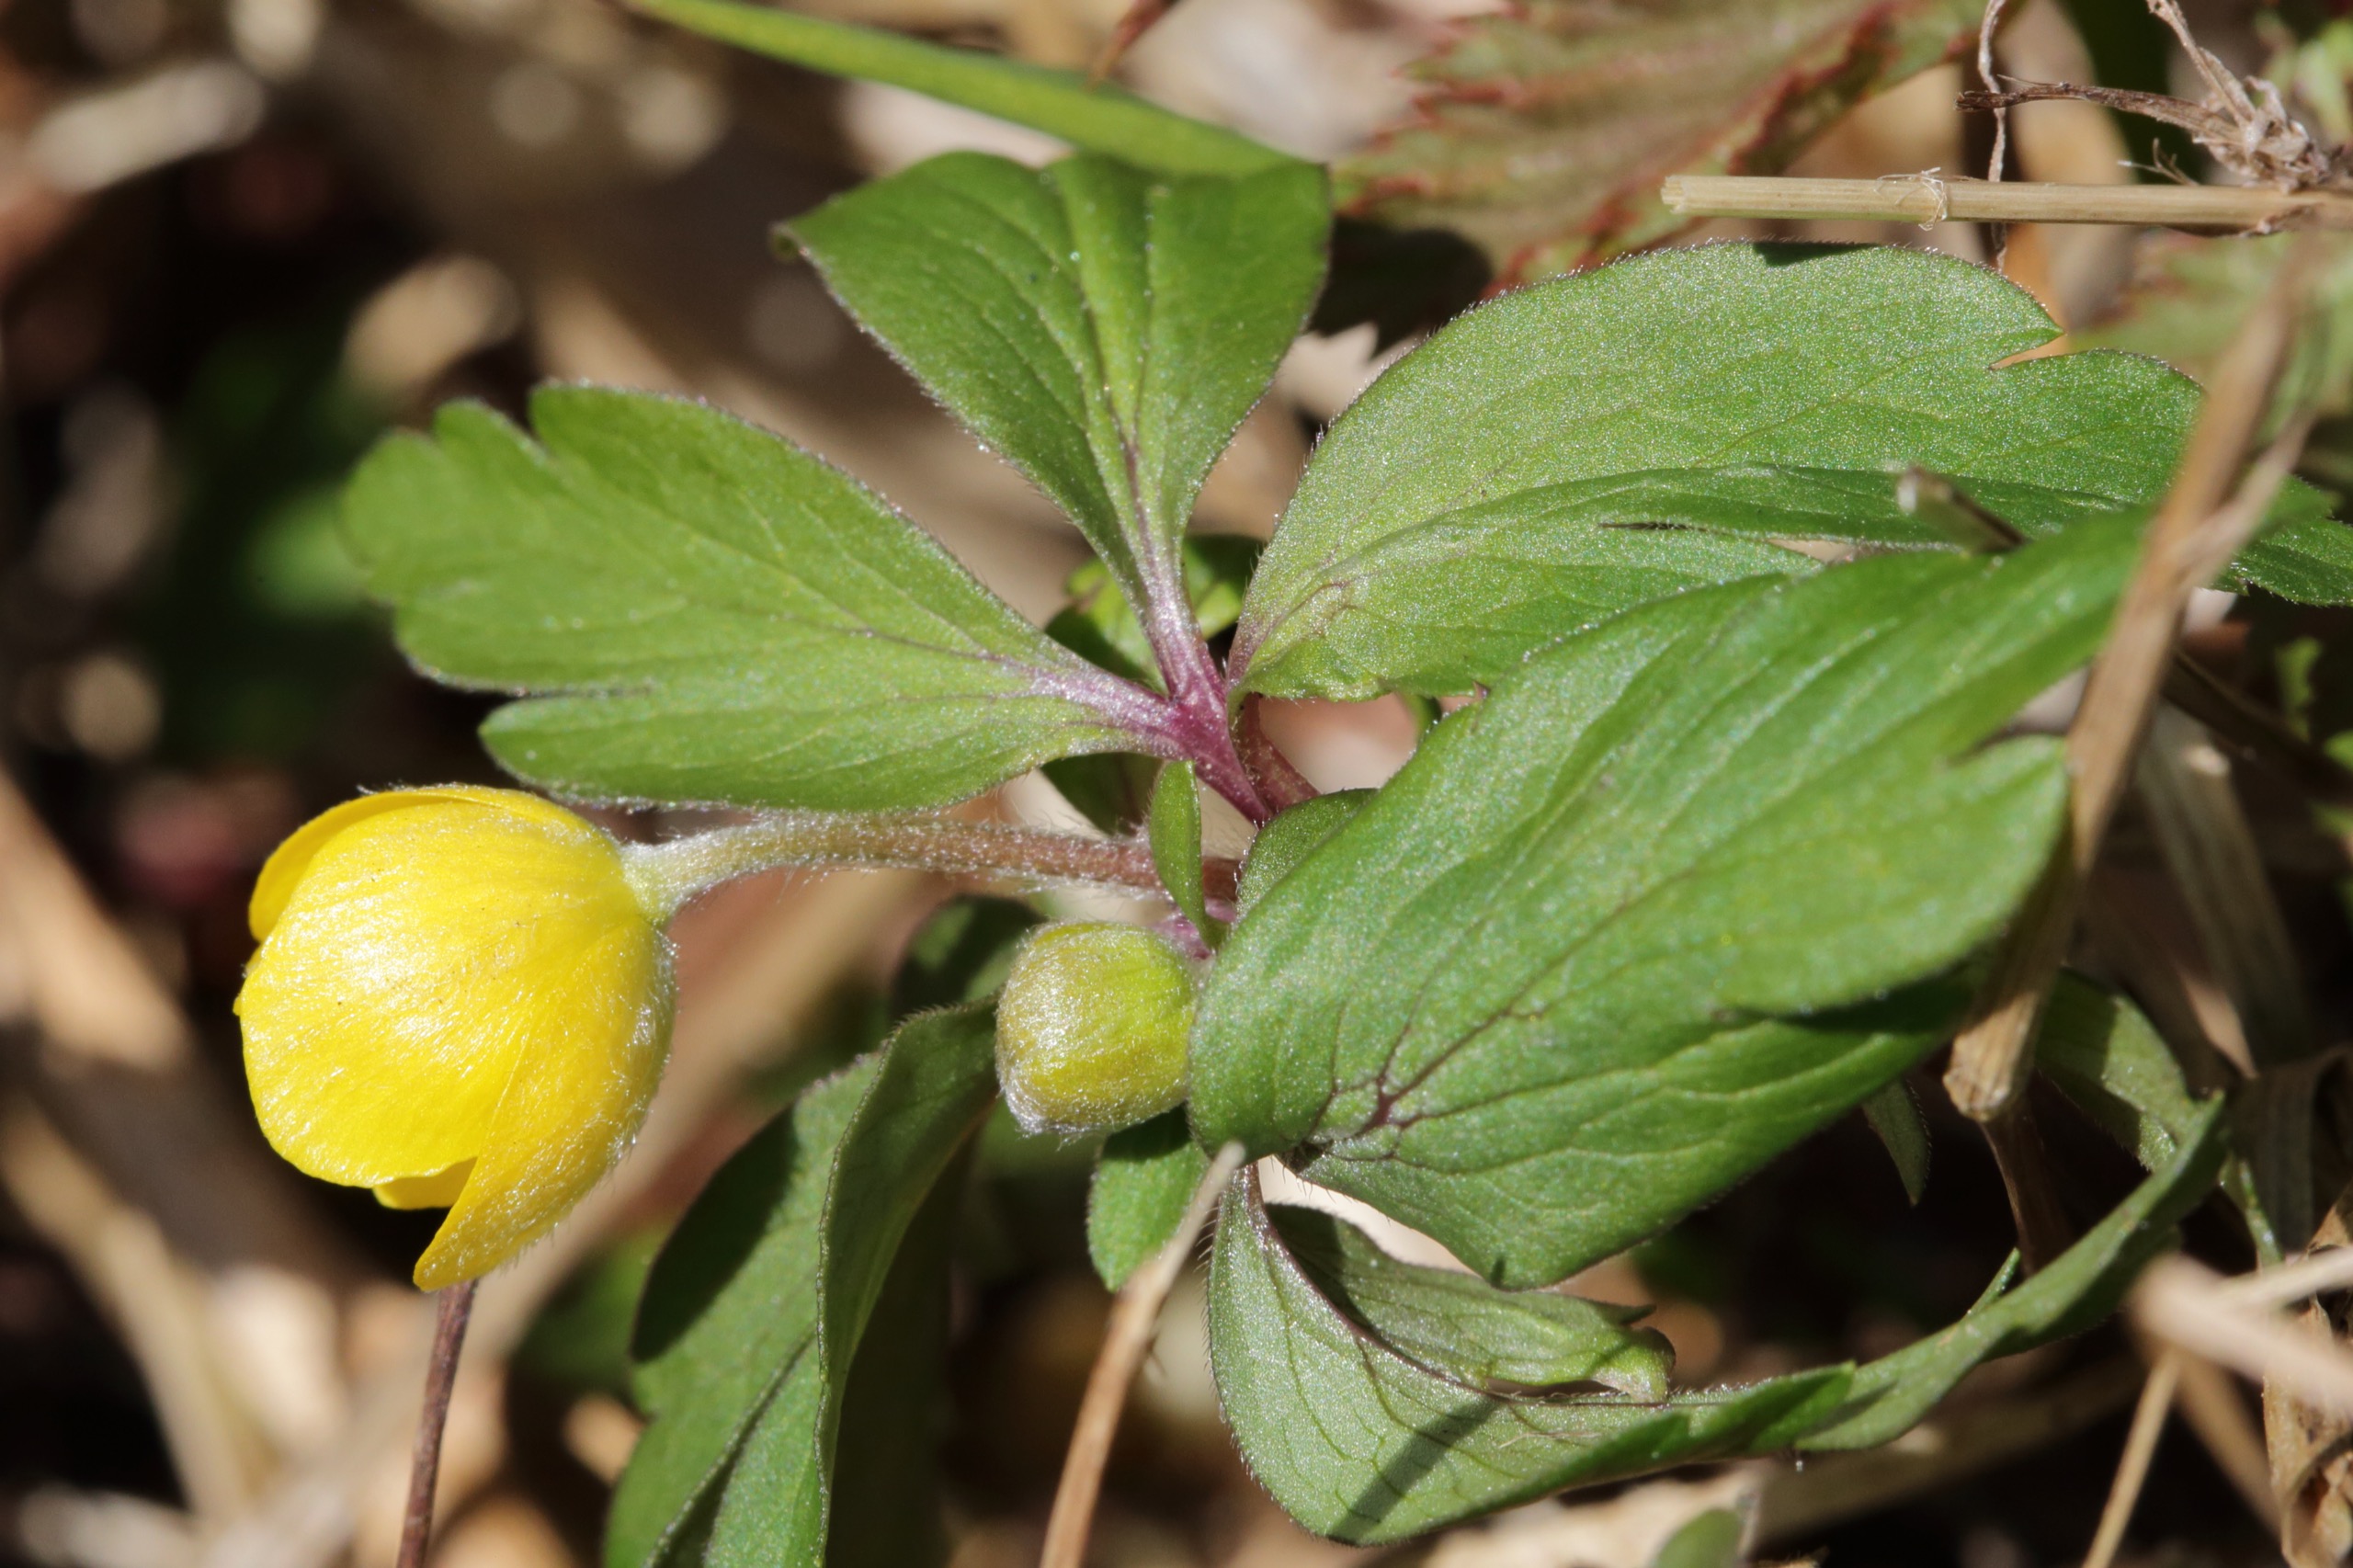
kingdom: Plantae
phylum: Tracheophyta
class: Magnoliopsida
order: Ranunculales
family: Ranunculaceae
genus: Anemone
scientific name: Anemone ranunculoides
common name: Gul anemone
